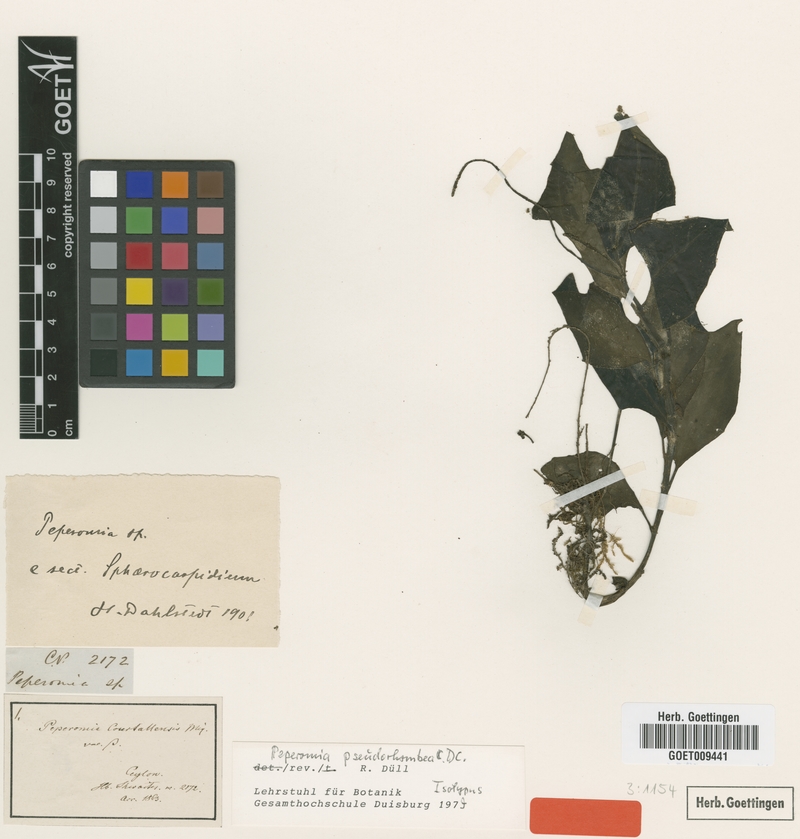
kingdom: Plantae
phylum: Tracheophyta
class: Magnoliopsida
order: Piperales
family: Piperaceae
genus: Peperomia
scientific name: Peperomia pseudorhombea
